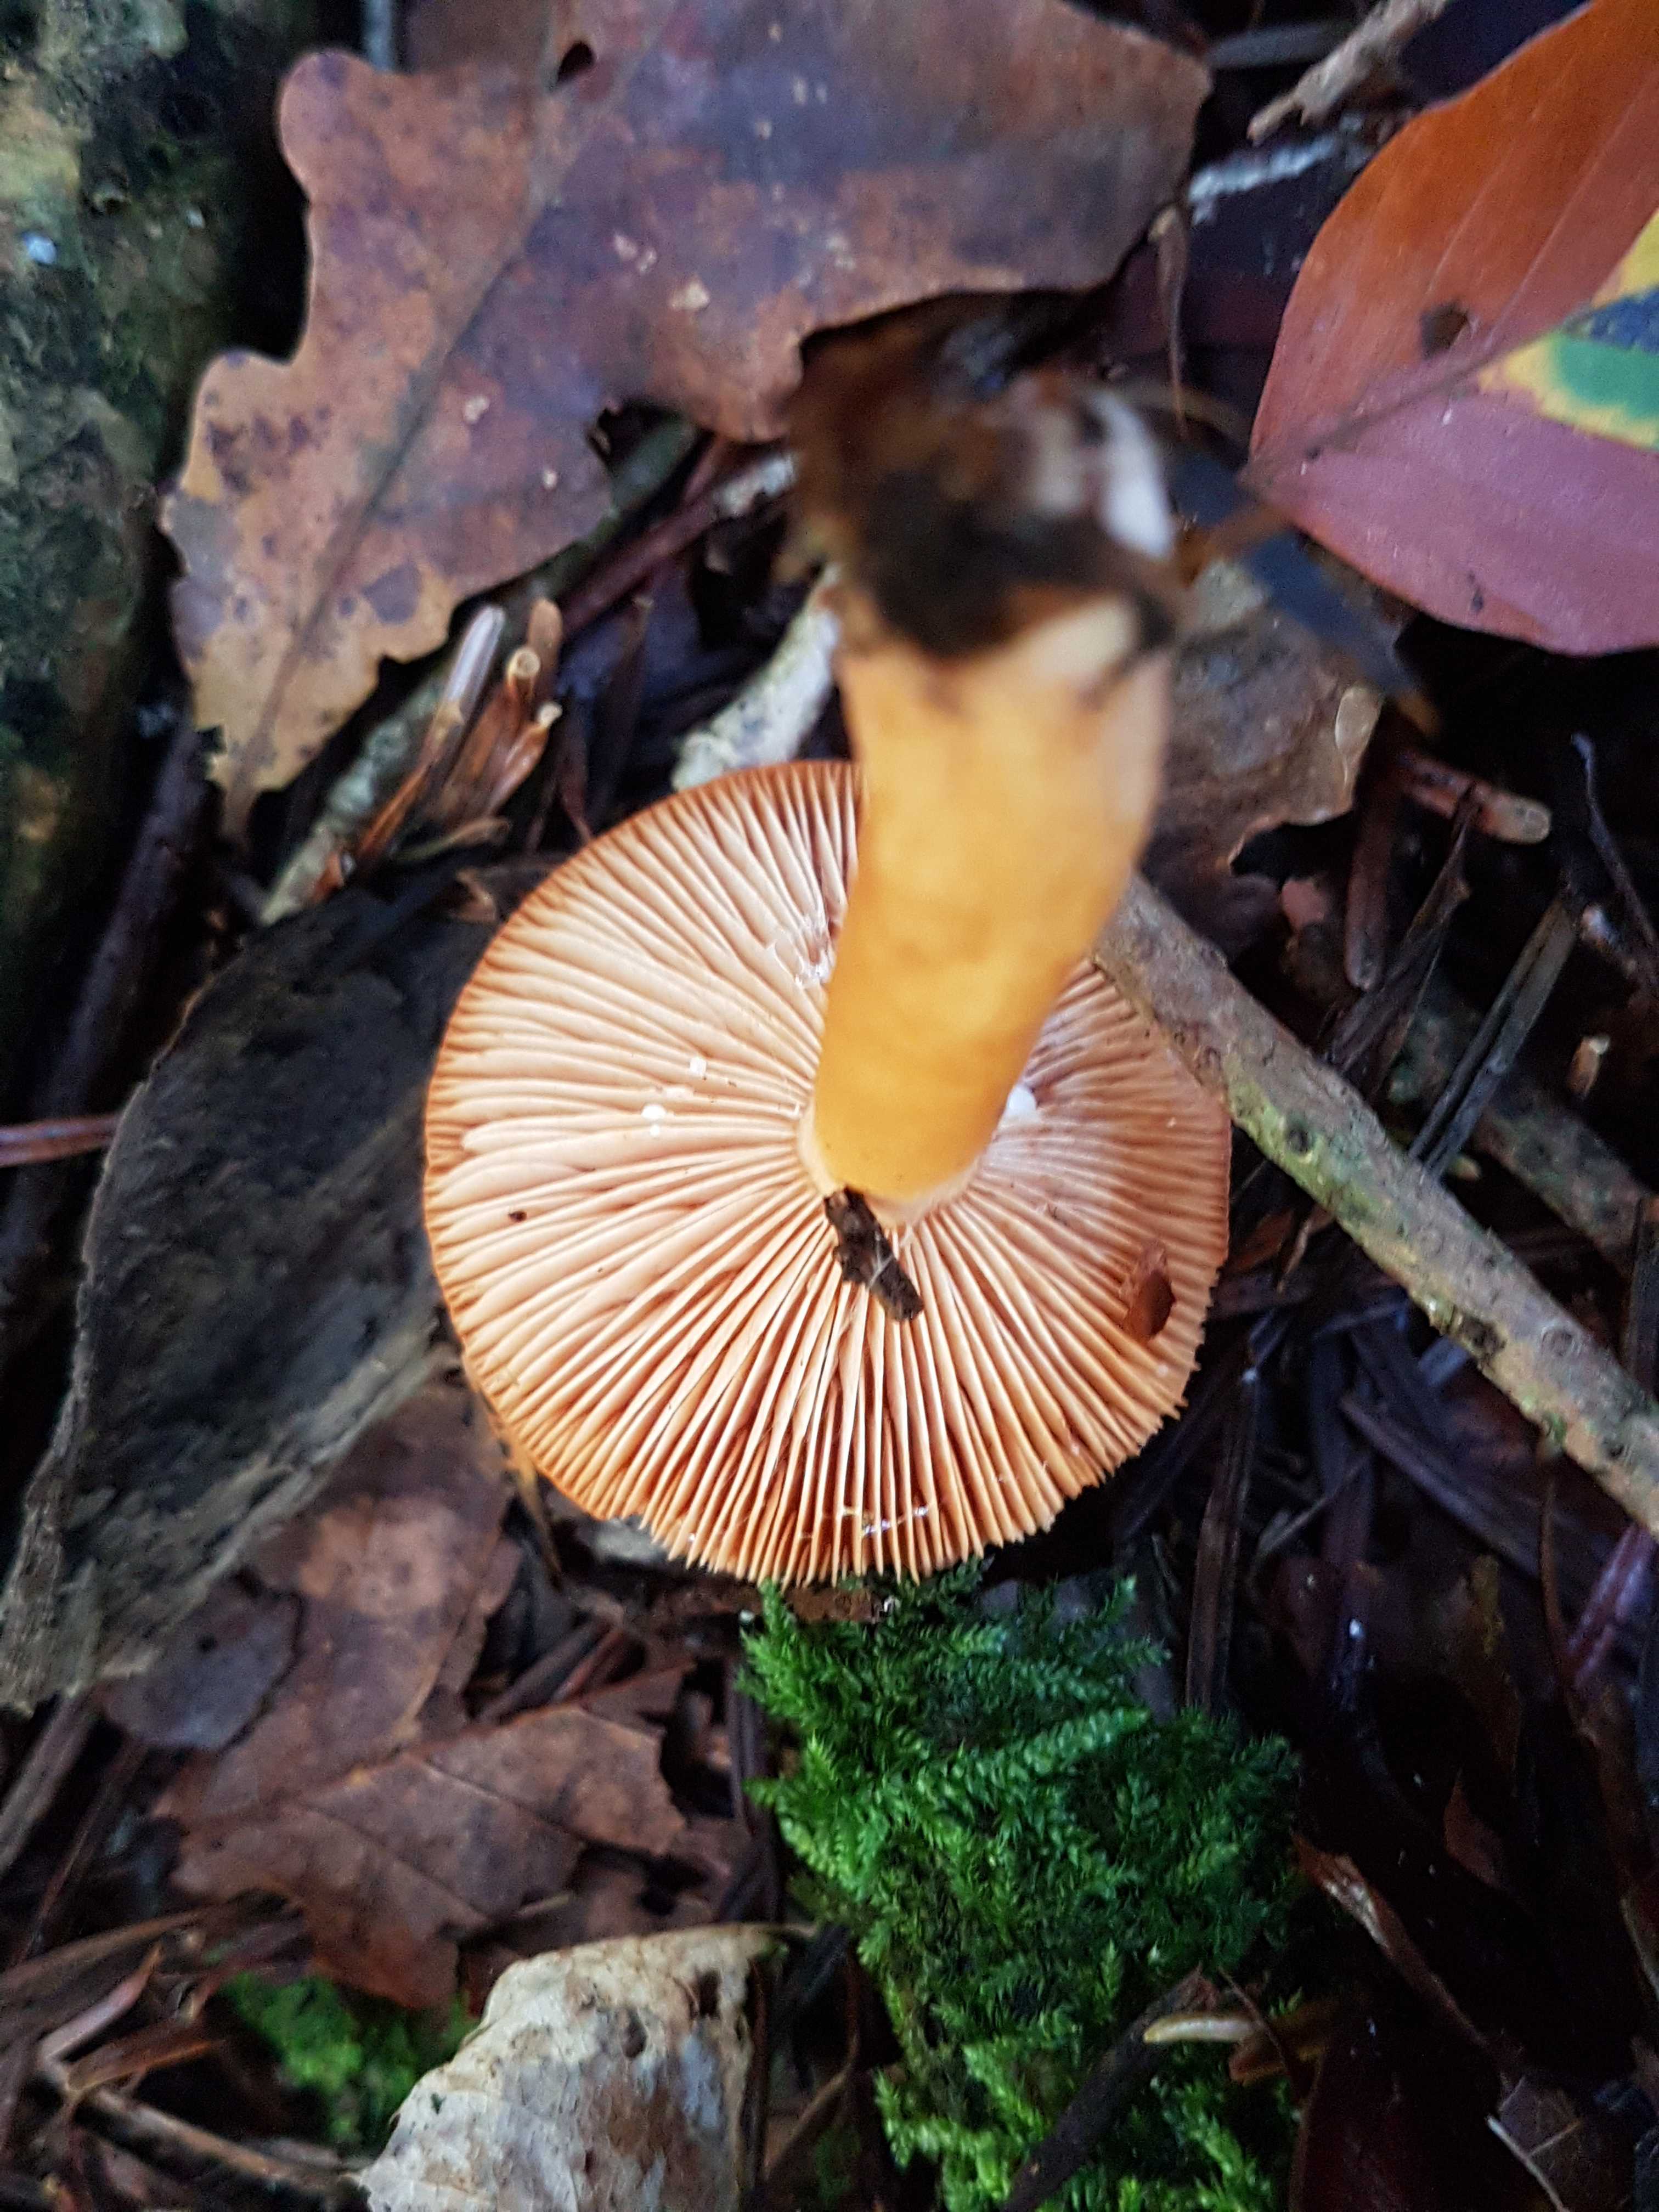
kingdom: Fungi
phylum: Basidiomycota
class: Agaricomycetes
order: Russulales
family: Russulaceae
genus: Lactarius
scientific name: Lactarius
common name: mælkehat
